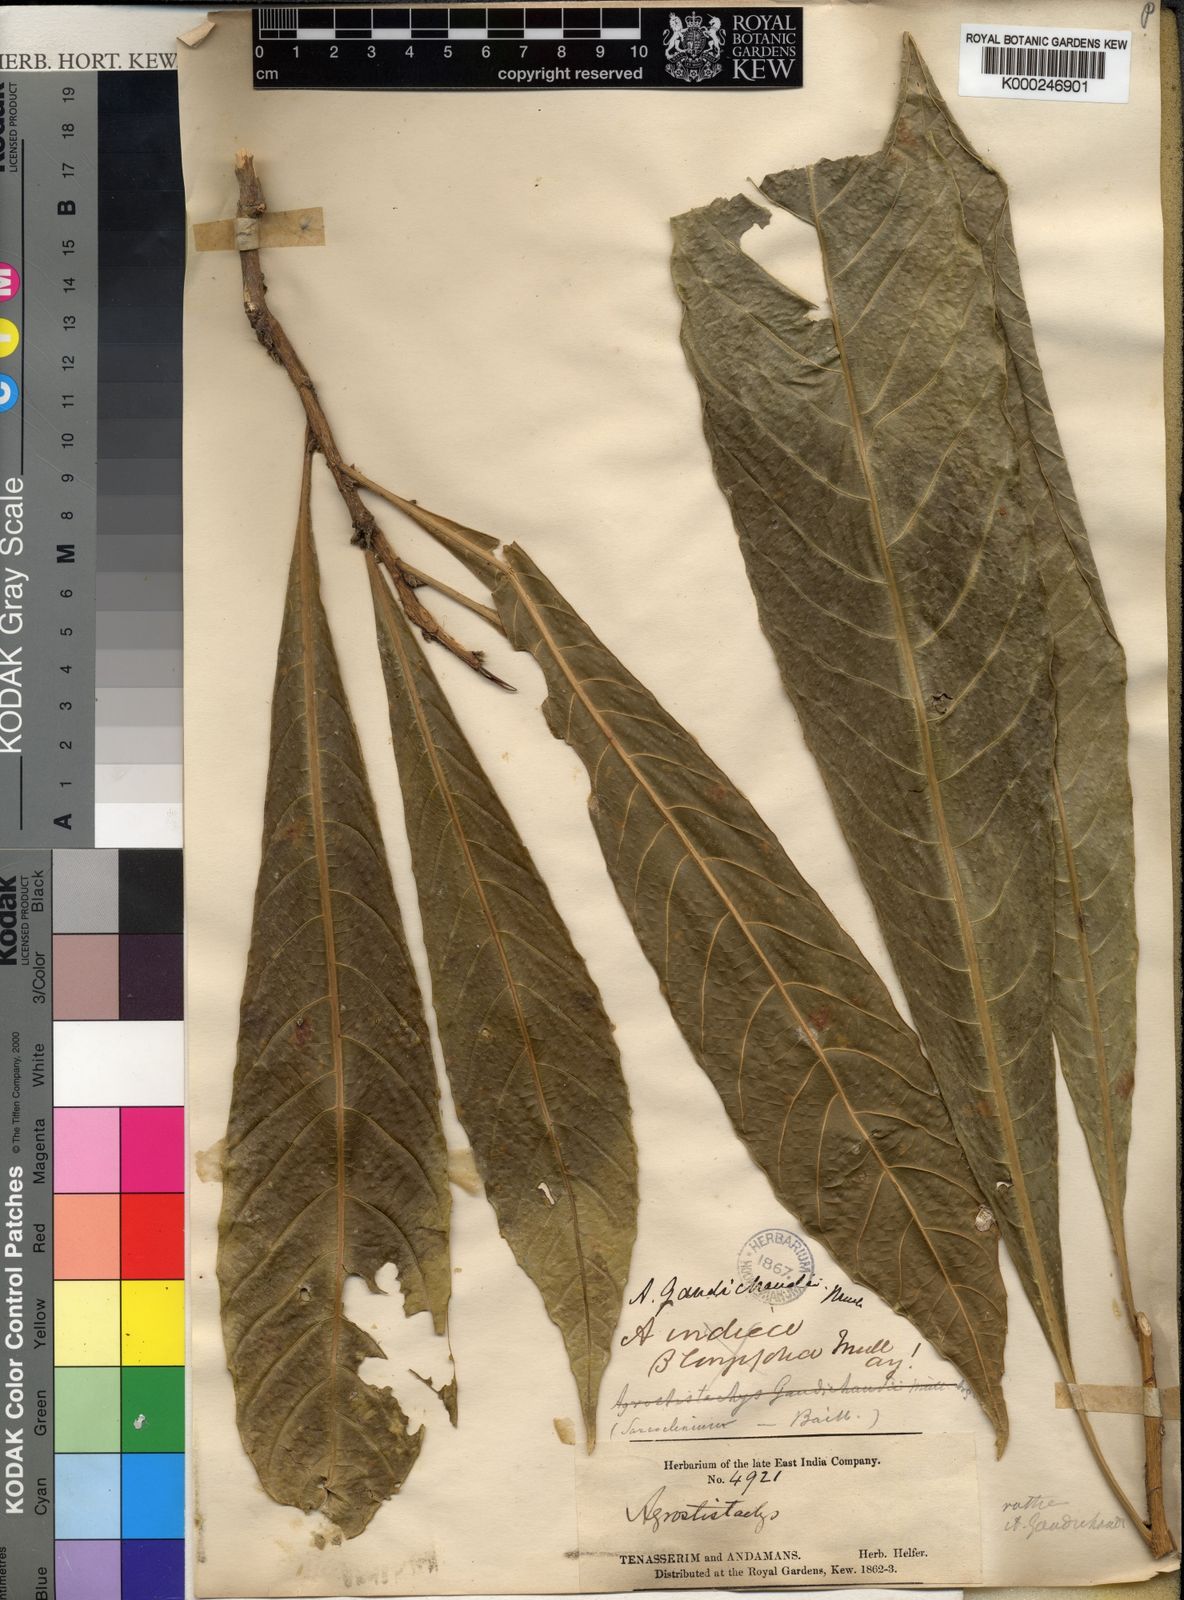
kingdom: Plantae
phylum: Tracheophyta
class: Magnoliopsida
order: Malpighiales
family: Euphorbiaceae
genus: Agrostistachys
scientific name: Agrostistachys indica
